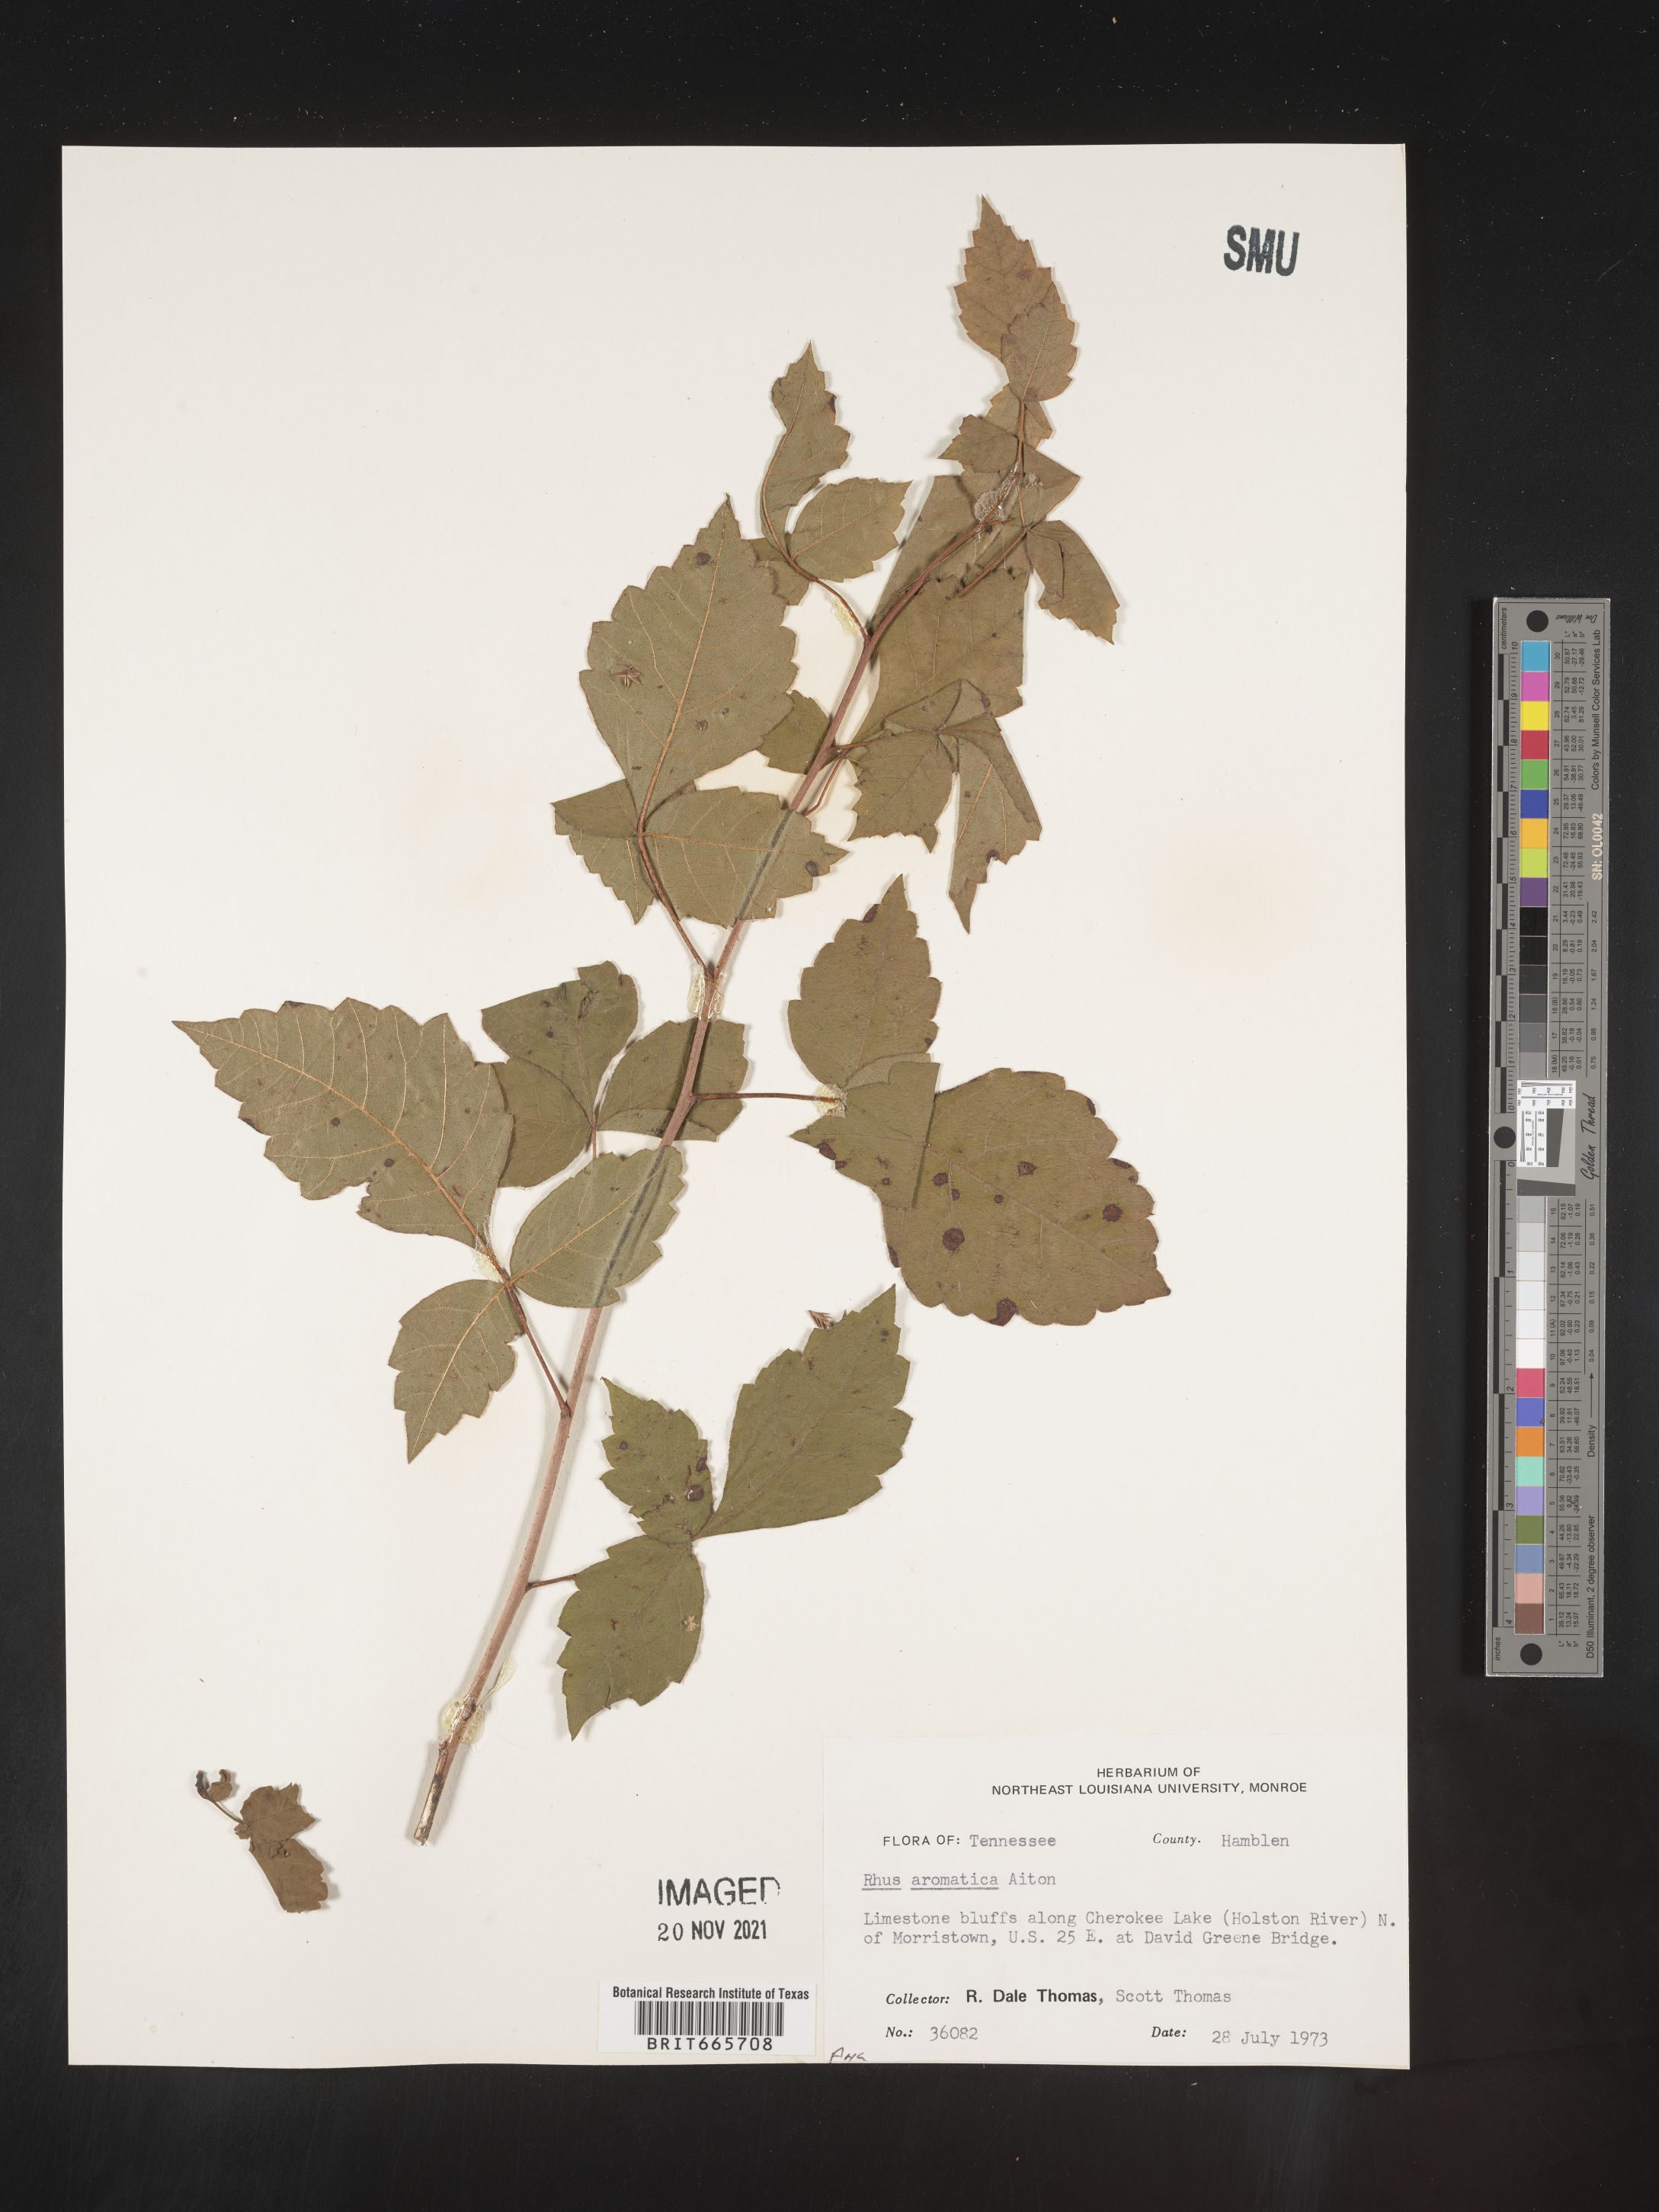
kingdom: Plantae
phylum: Tracheophyta
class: Magnoliopsida
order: Sapindales
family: Anacardiaceae
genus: Rhus
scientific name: Rhus aromatica
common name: Aromatic sumac
